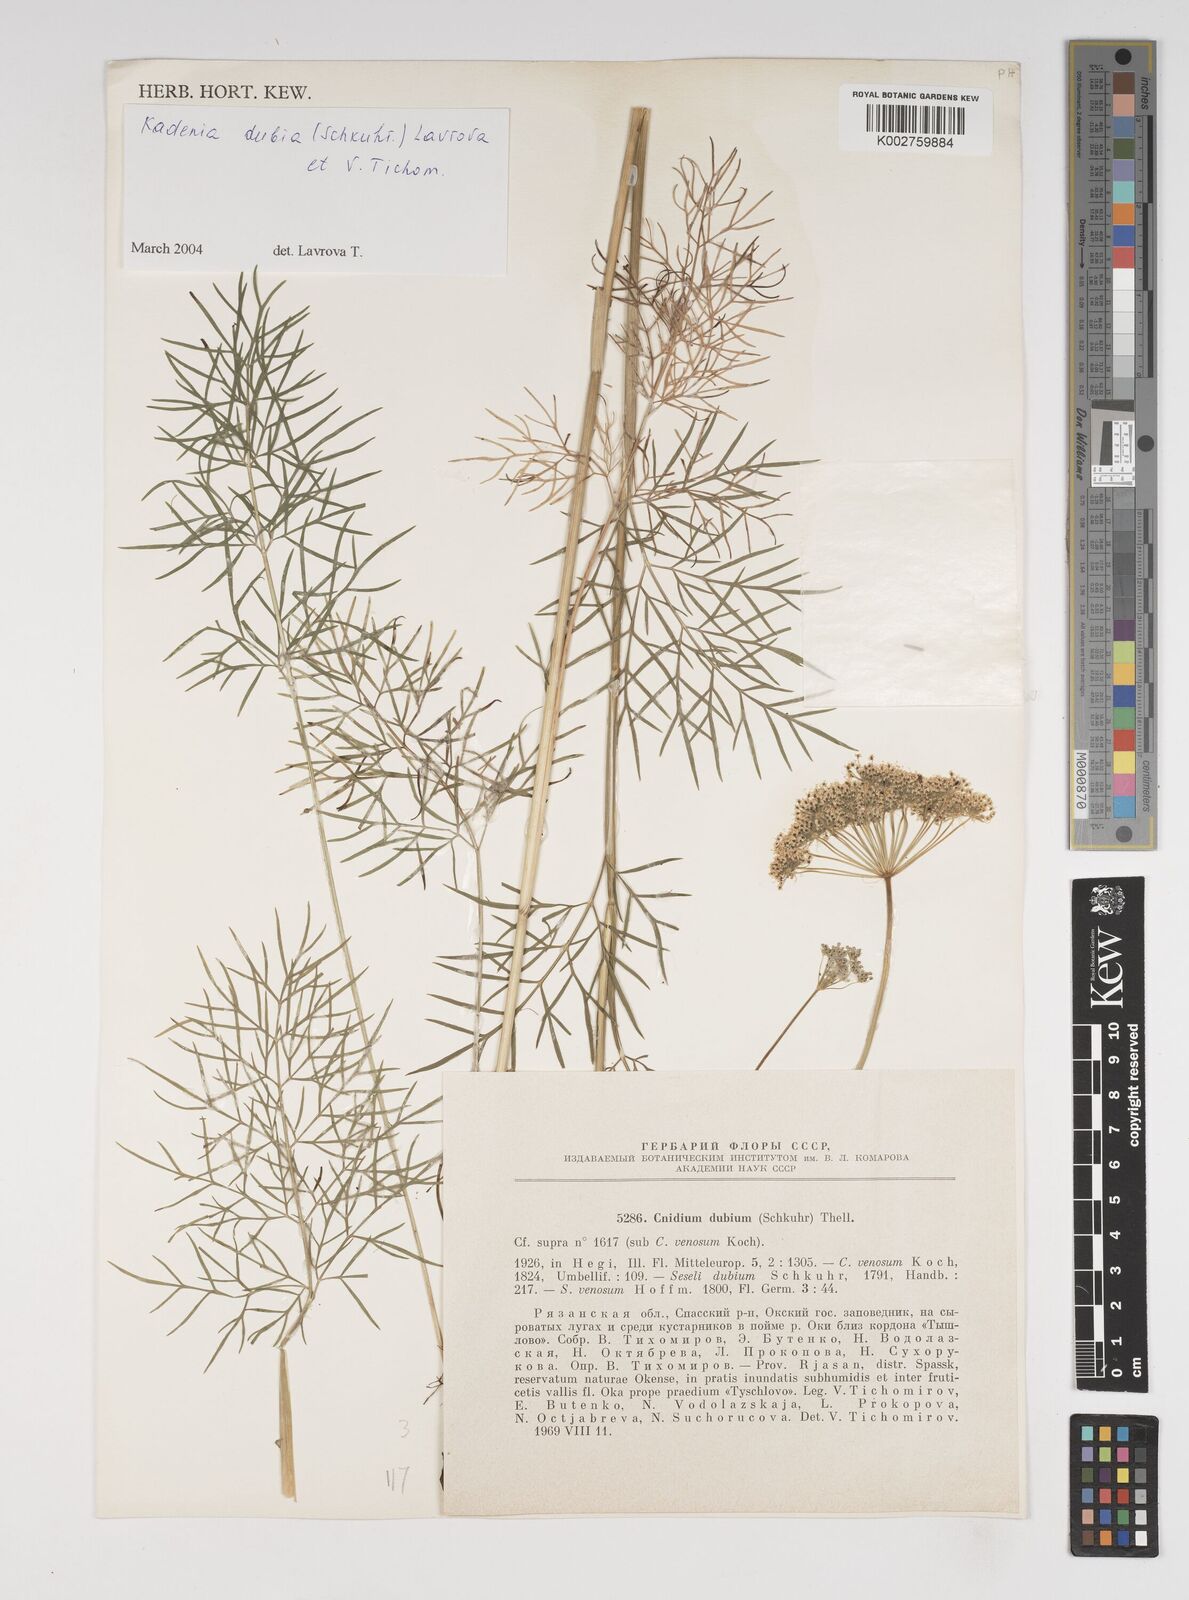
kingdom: Plantae
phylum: Tracheophyta
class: Magnoliopsida
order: Apiales
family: Apiaceae
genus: Kadenia
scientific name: Kadenia dubia
